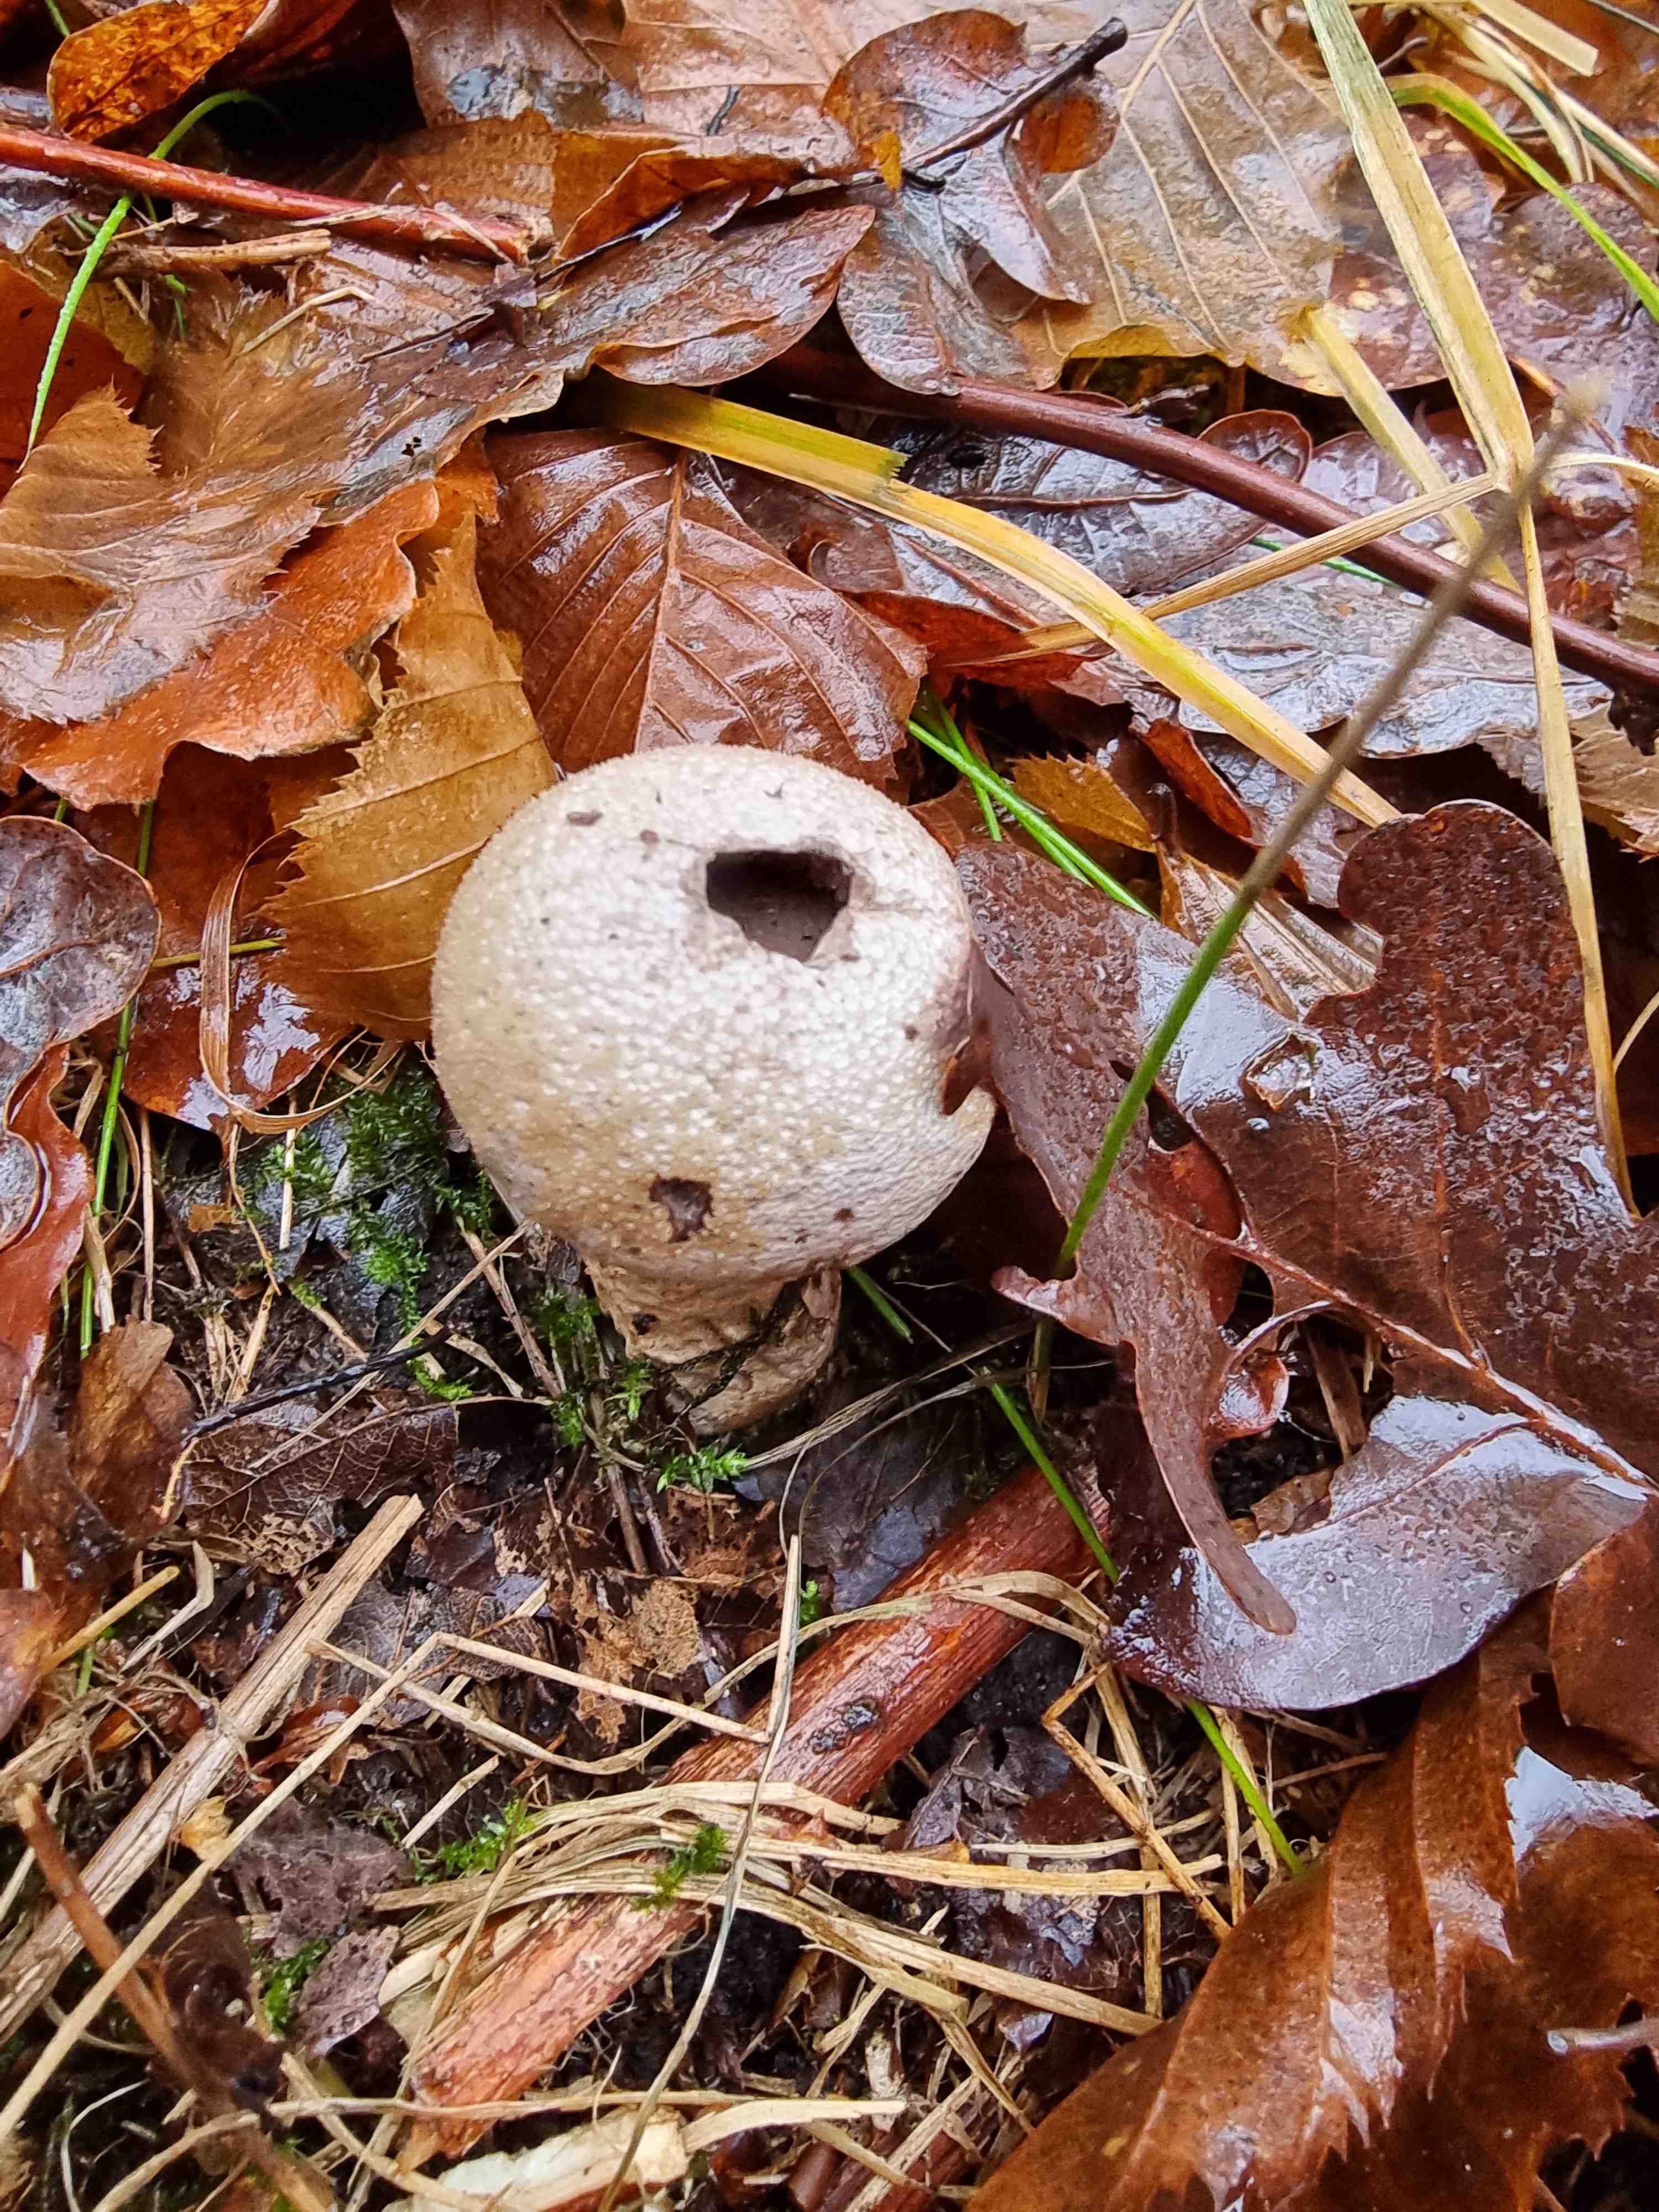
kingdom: Fungi
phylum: Basidiomycota
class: Agaricomycetes
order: Agaricales
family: Lycoperdaceae
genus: Lycoperdon
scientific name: Lycoperdon perlatum
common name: krystal-støvbold
